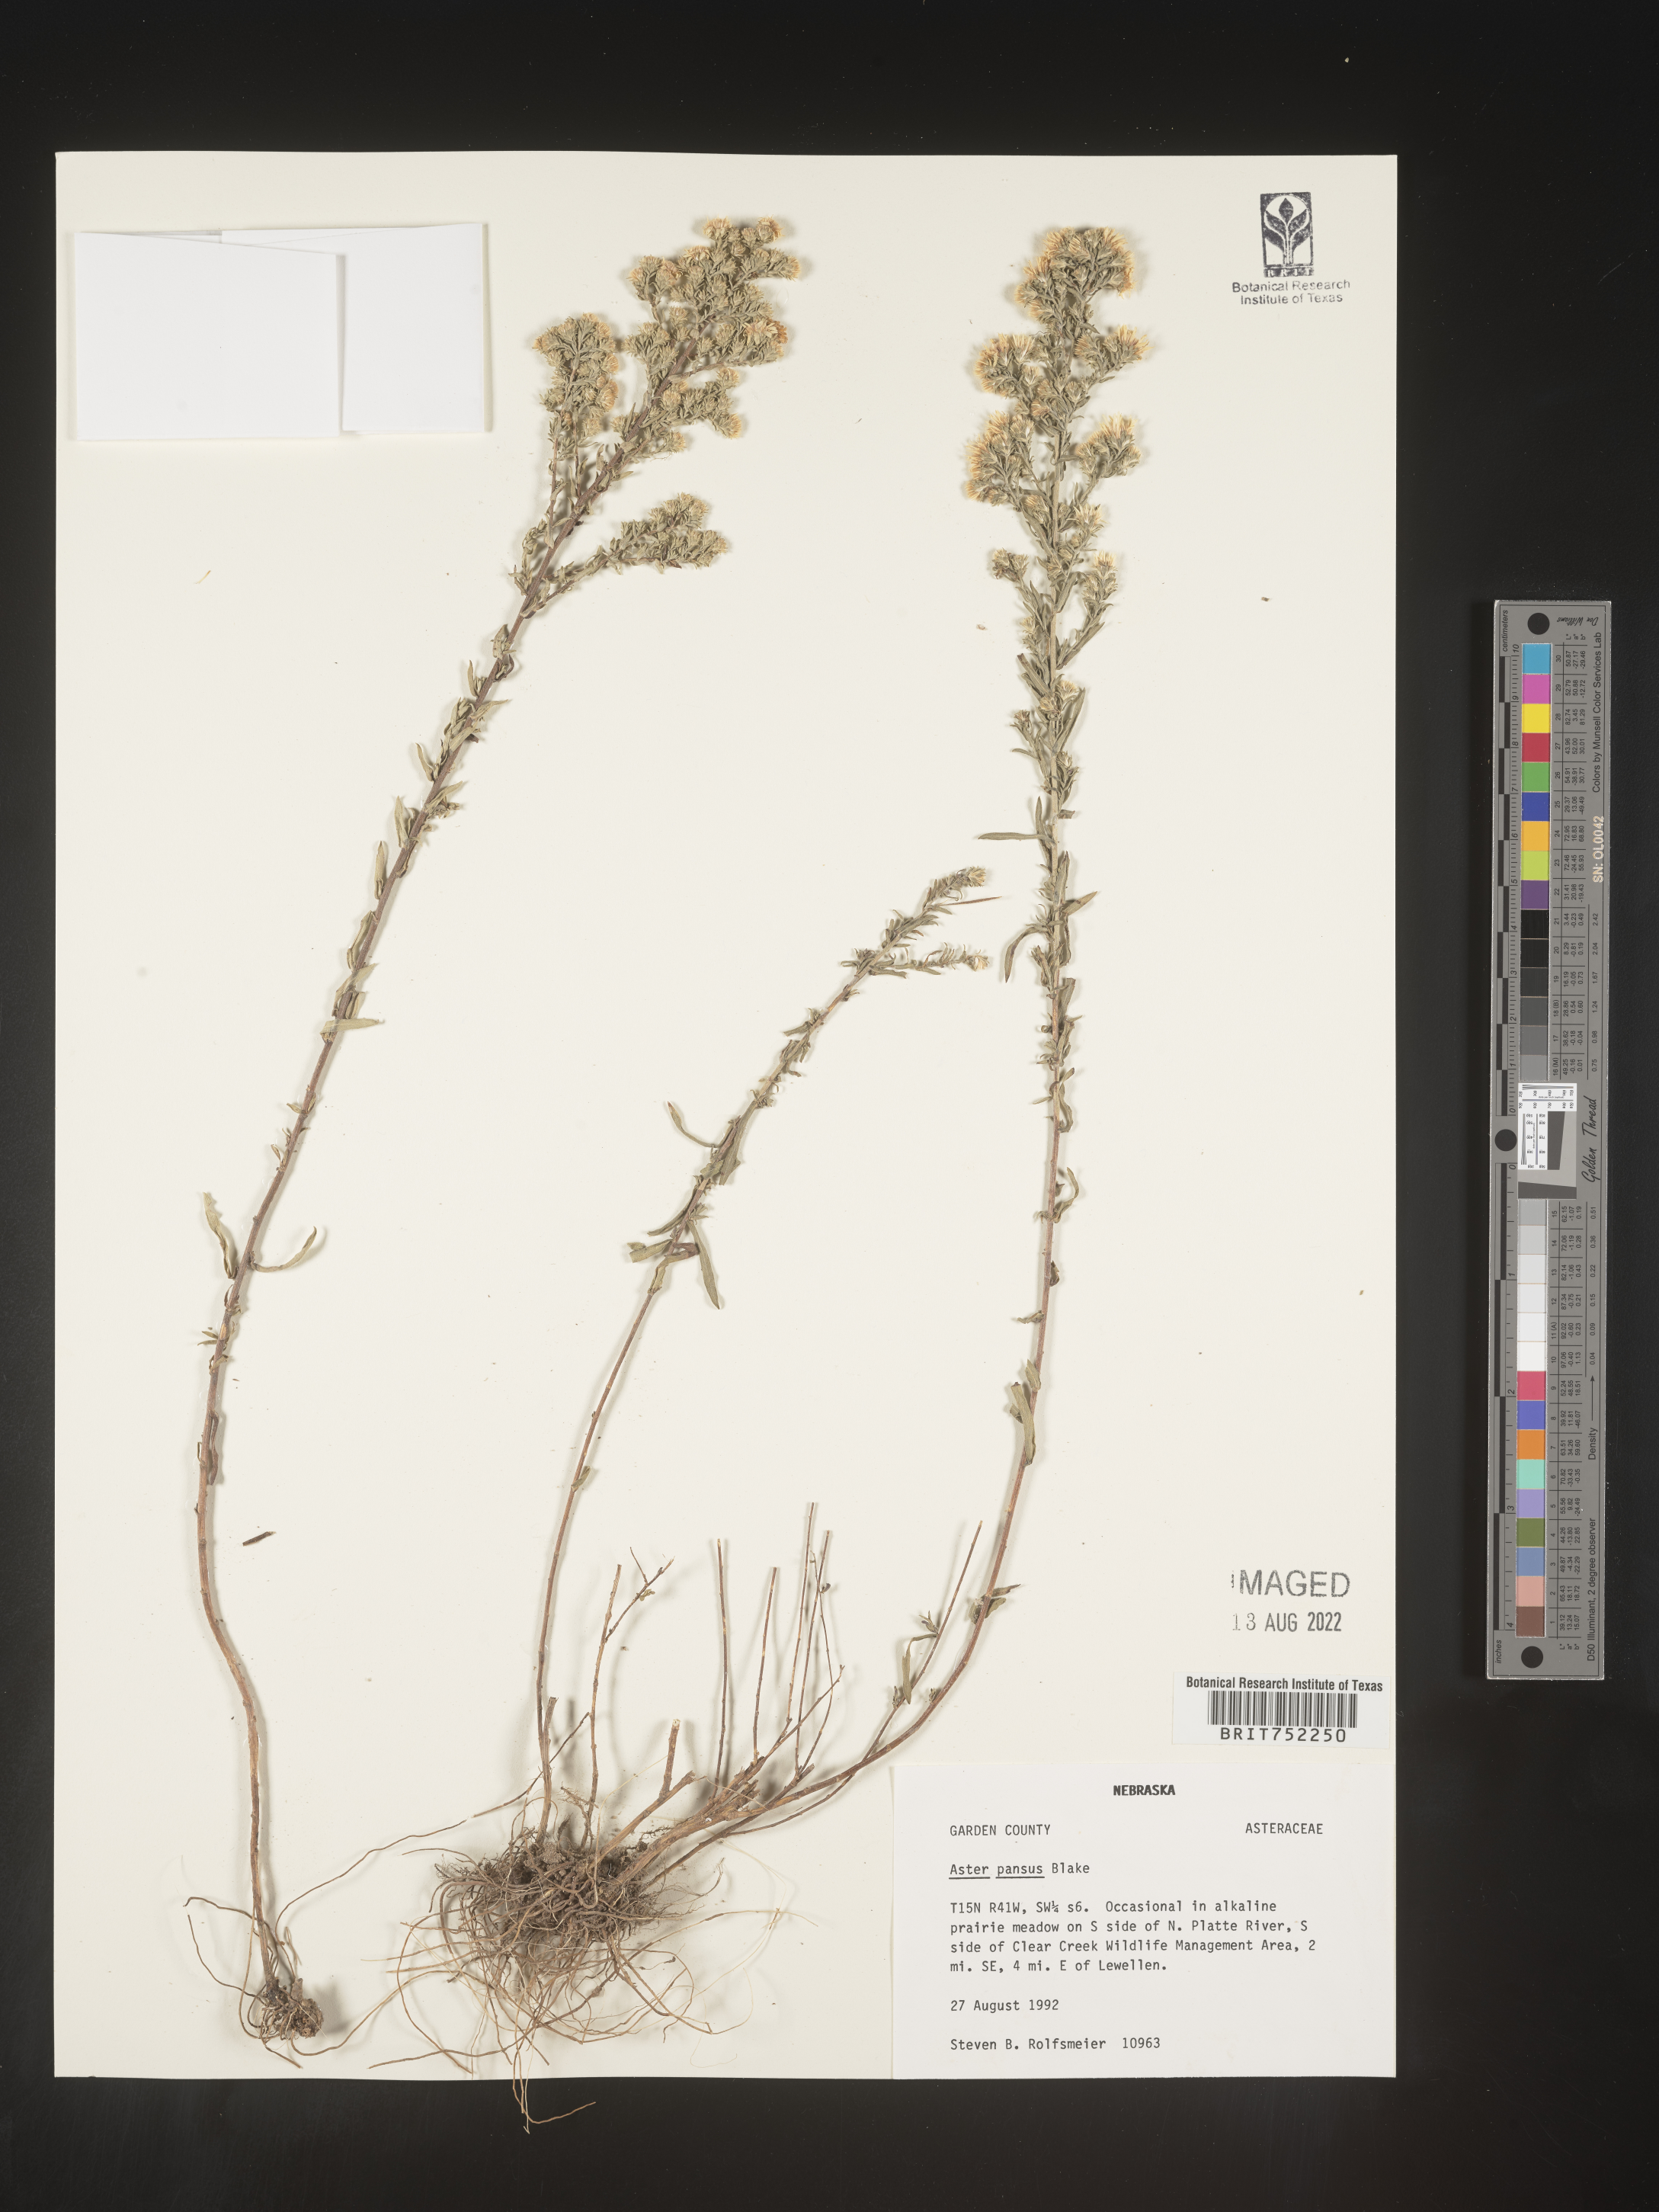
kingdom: Plantae
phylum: Tracheophyta
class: Magnoliopsida
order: Asterales
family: Asteraceae
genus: Symphyotrichum
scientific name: Symphyotrichum ericoides
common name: Heath aster
